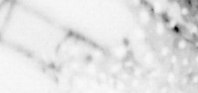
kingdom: Animalia
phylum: Chordata
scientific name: Chordata
